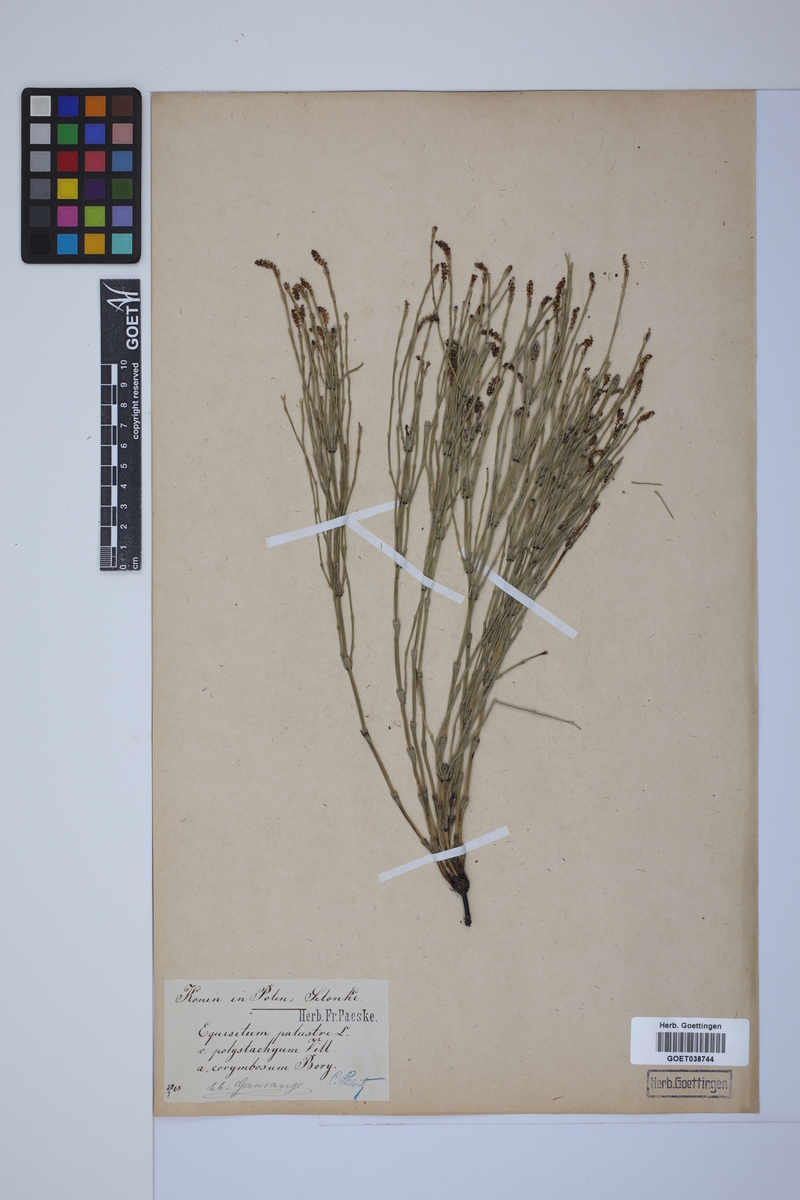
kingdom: Plantae
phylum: Tracheophyta
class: Polypodiopsida
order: Equisetales
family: Equisetaceae
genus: Equisetum
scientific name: Equisetum palustre
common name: Marsh horsetail
